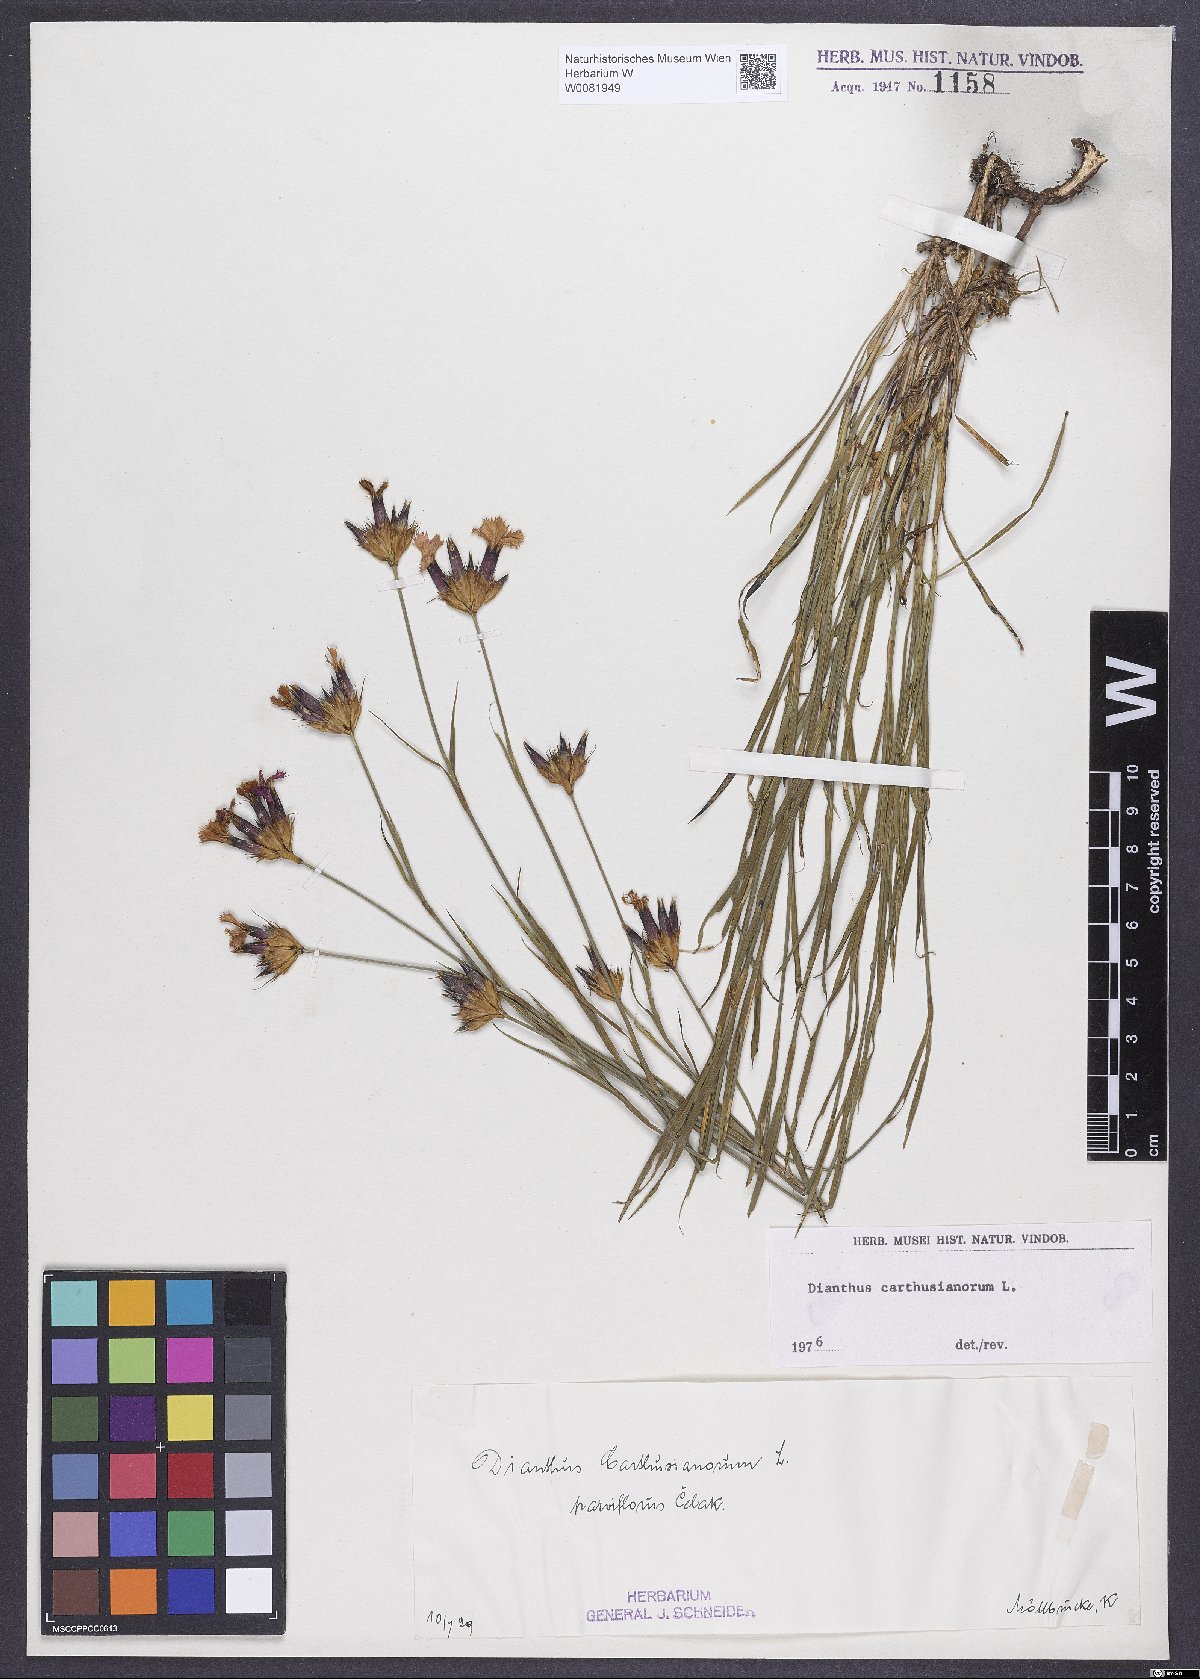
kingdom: Plantae
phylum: Tracheophyta
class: Magnoliopsida
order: Caryophyllales
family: Caryophyllaceae
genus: Dianthus
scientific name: Dianthus carthusianorum
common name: Carthusian pink
